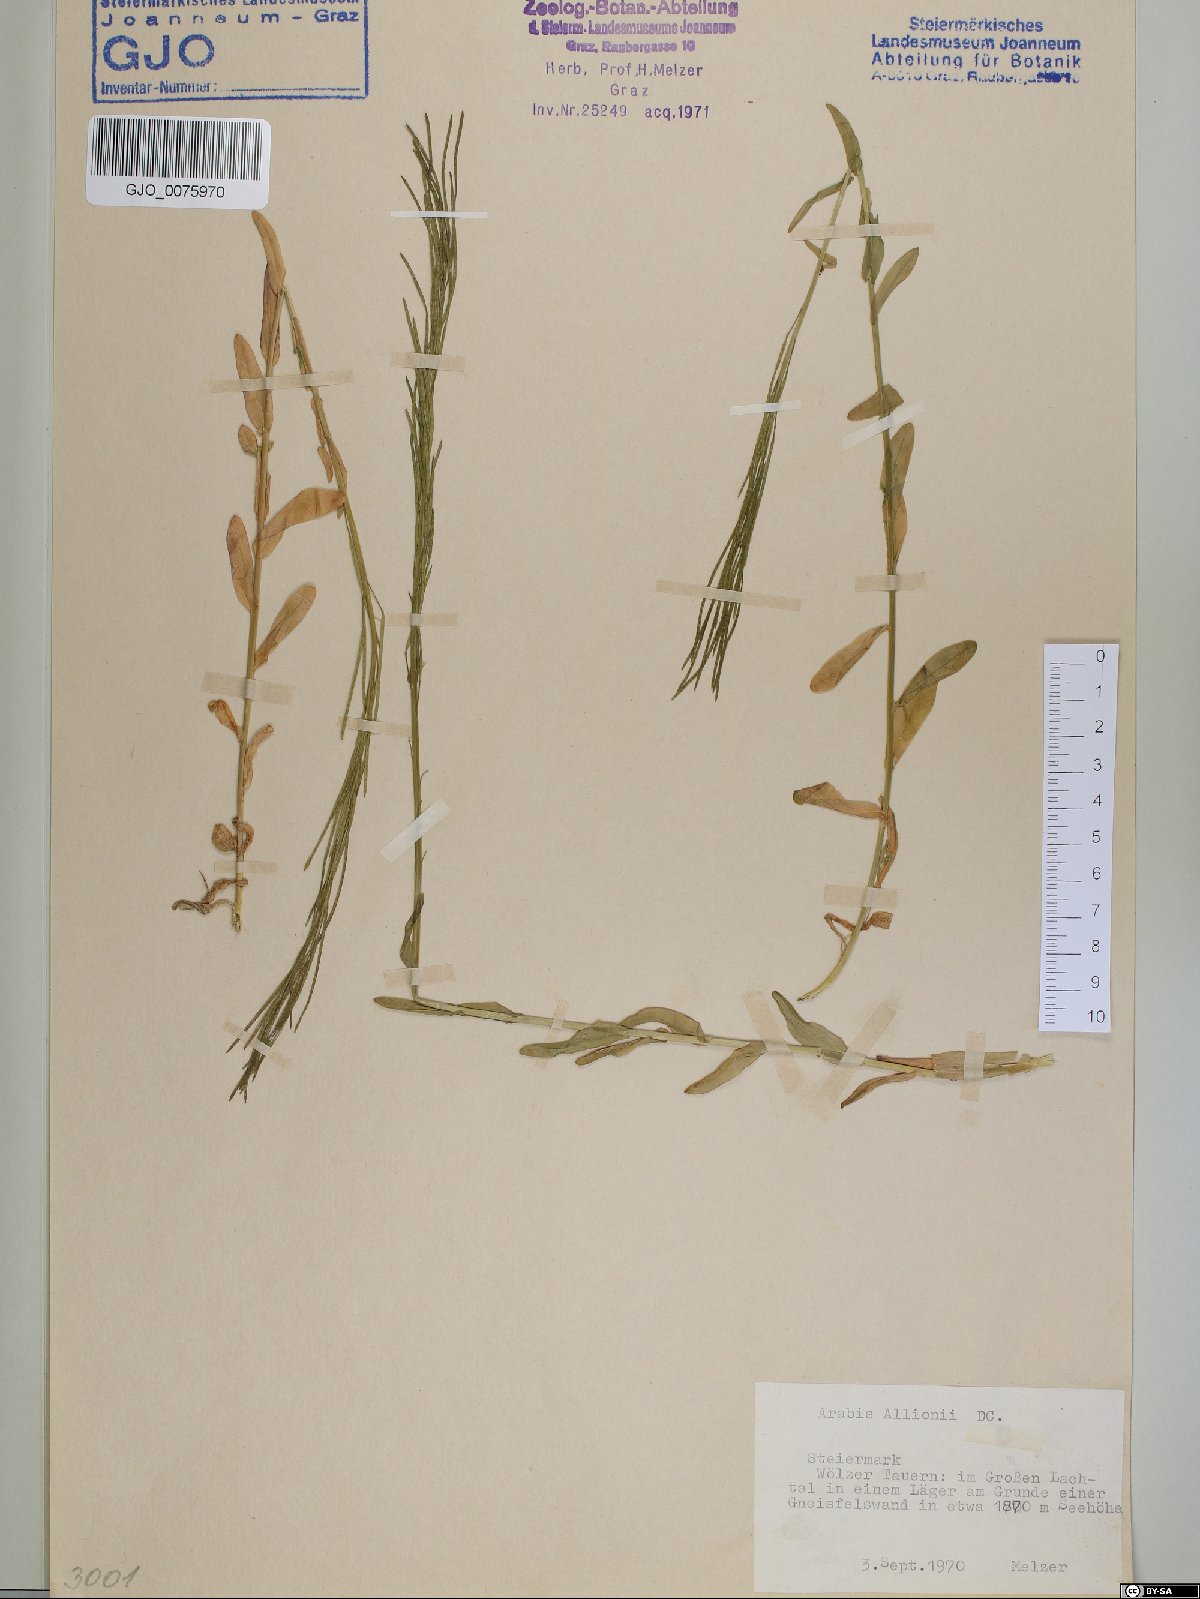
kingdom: Plantae
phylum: Tracheophyta
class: Magnoliopsida
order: Brassicales
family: Brassicaceae
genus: Arabis
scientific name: Arabis allionii
